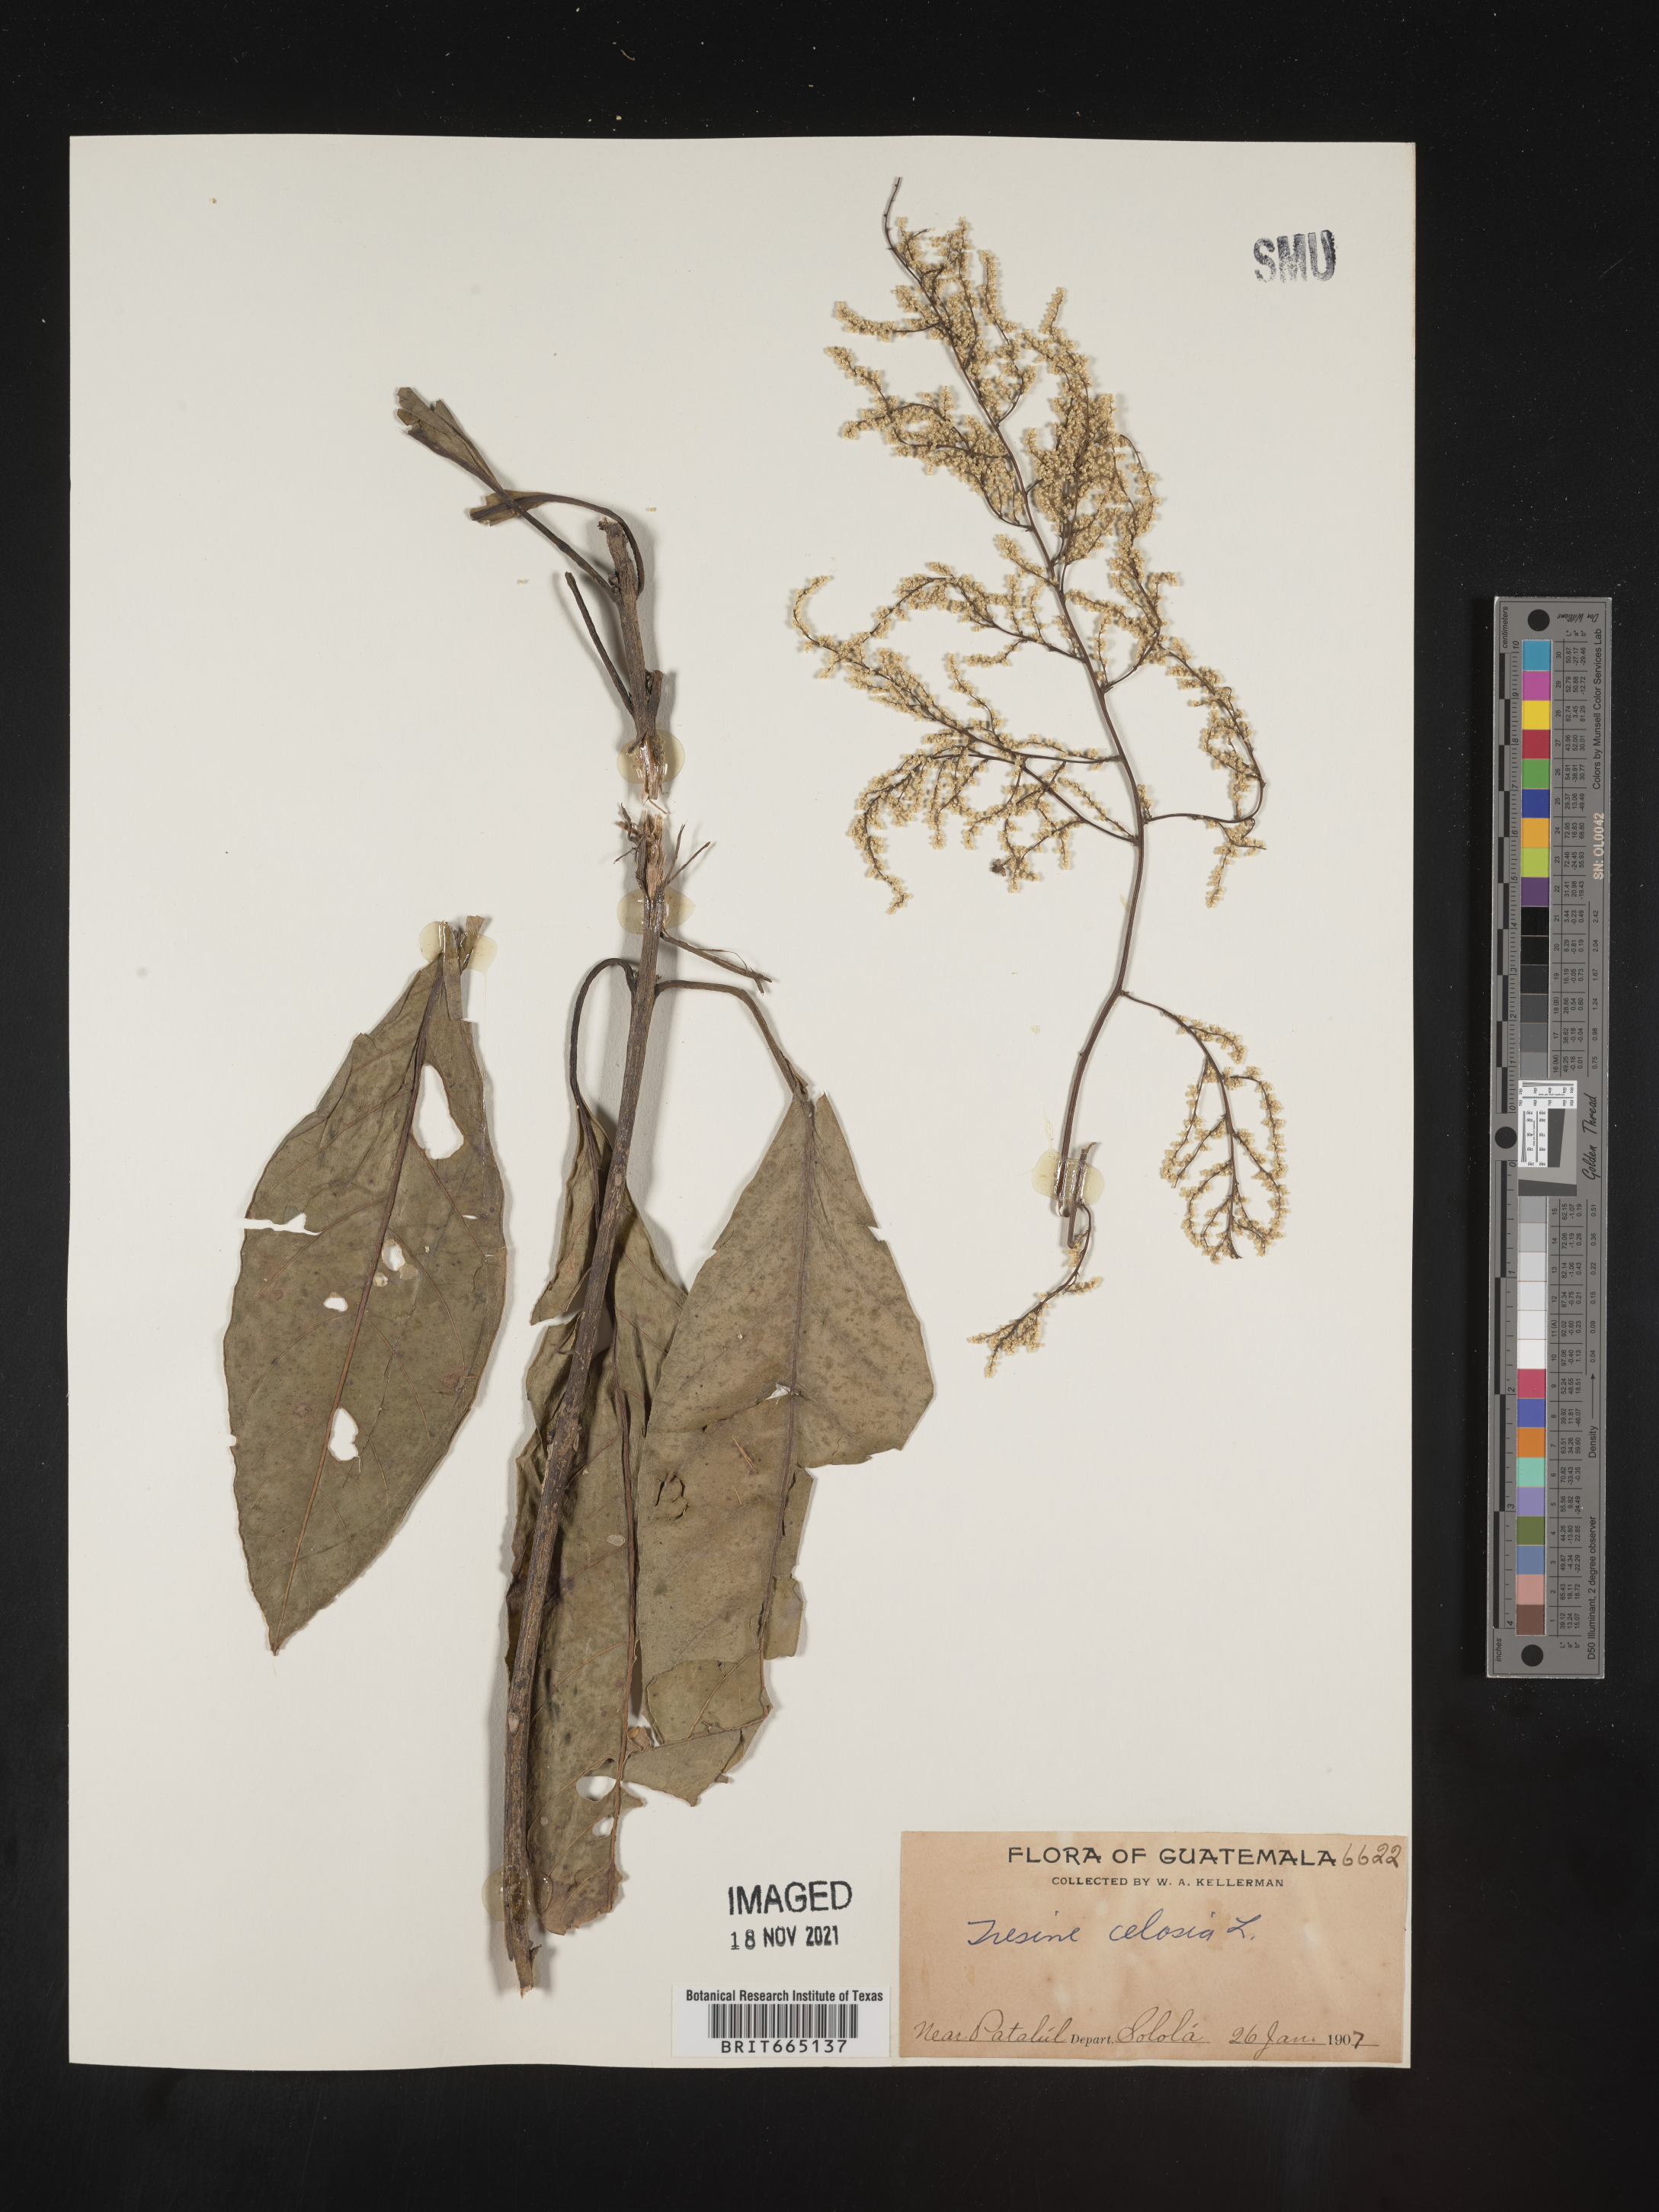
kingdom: Plantae
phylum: Tracheophyta
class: Magnoliopsida
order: Caryophyllales
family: Amaranthaceae
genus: Iresine
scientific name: Iresine
